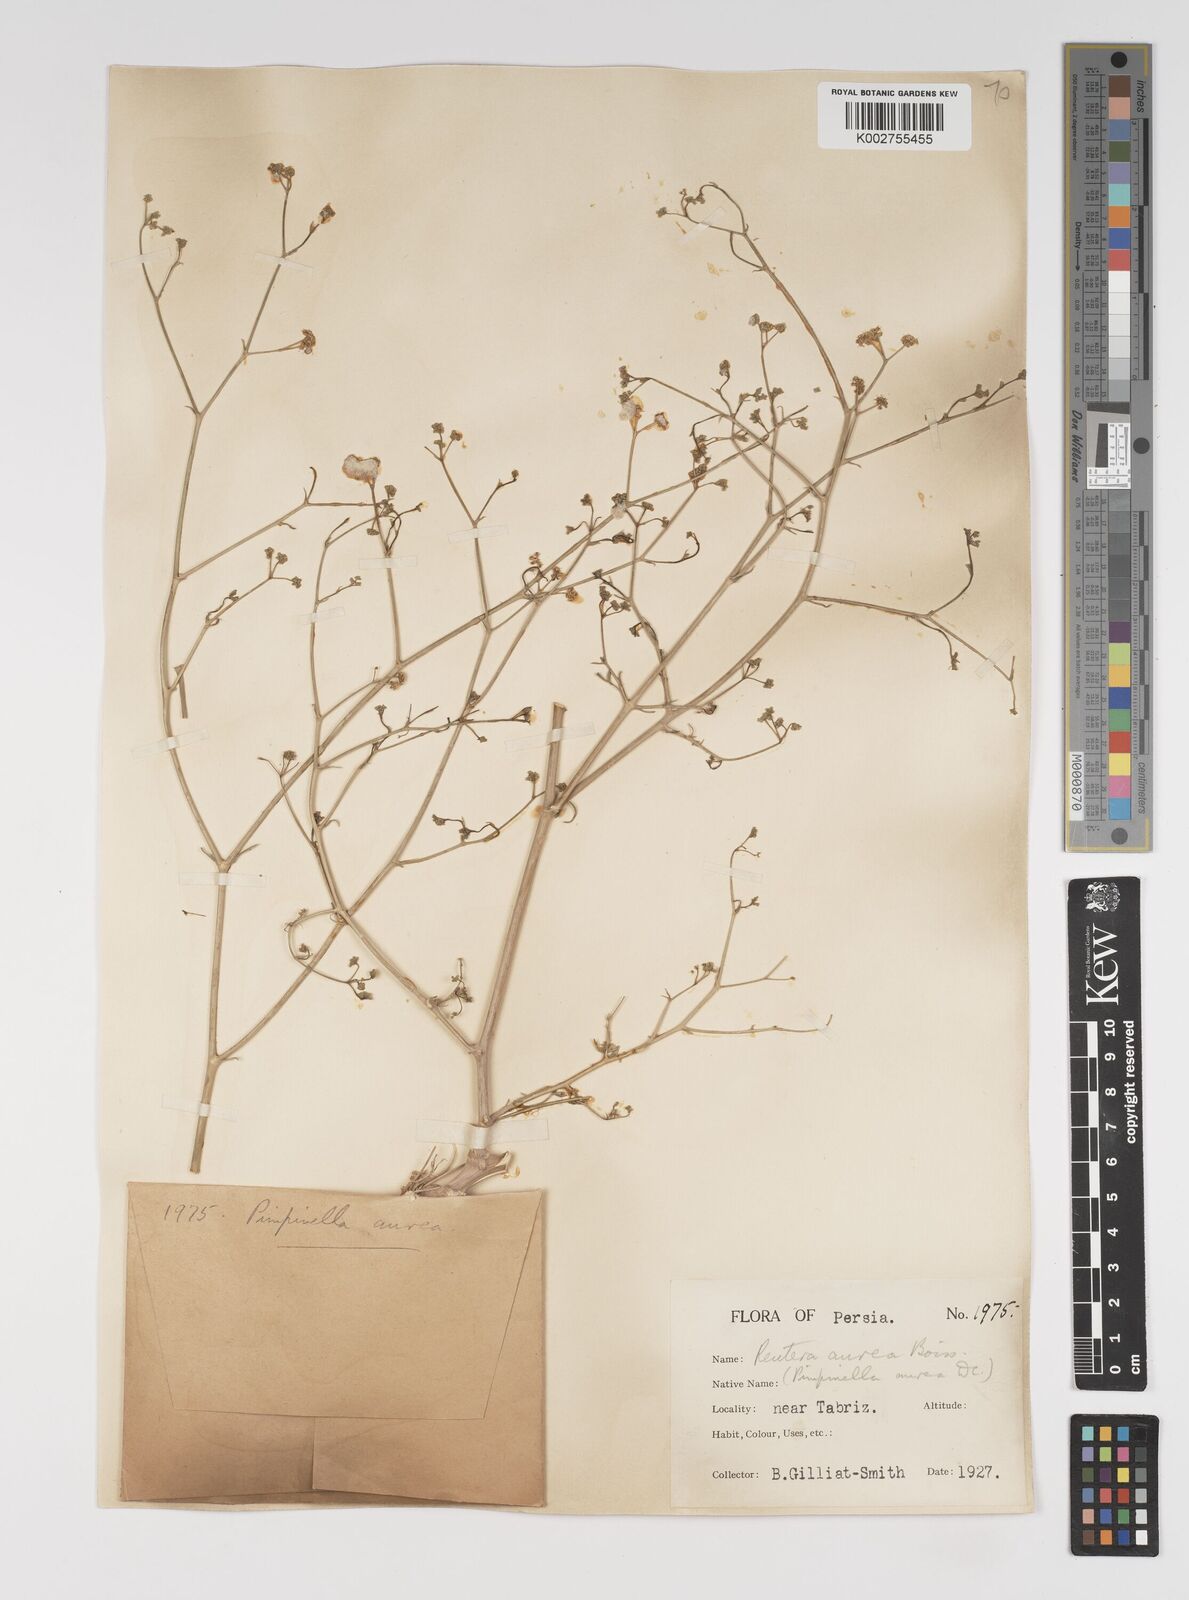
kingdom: Plantae
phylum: Tracheophyta
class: Magnoliopsida
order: Apiales
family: Apiaceae
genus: Pimpinella
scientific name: Pimpinella aurea
